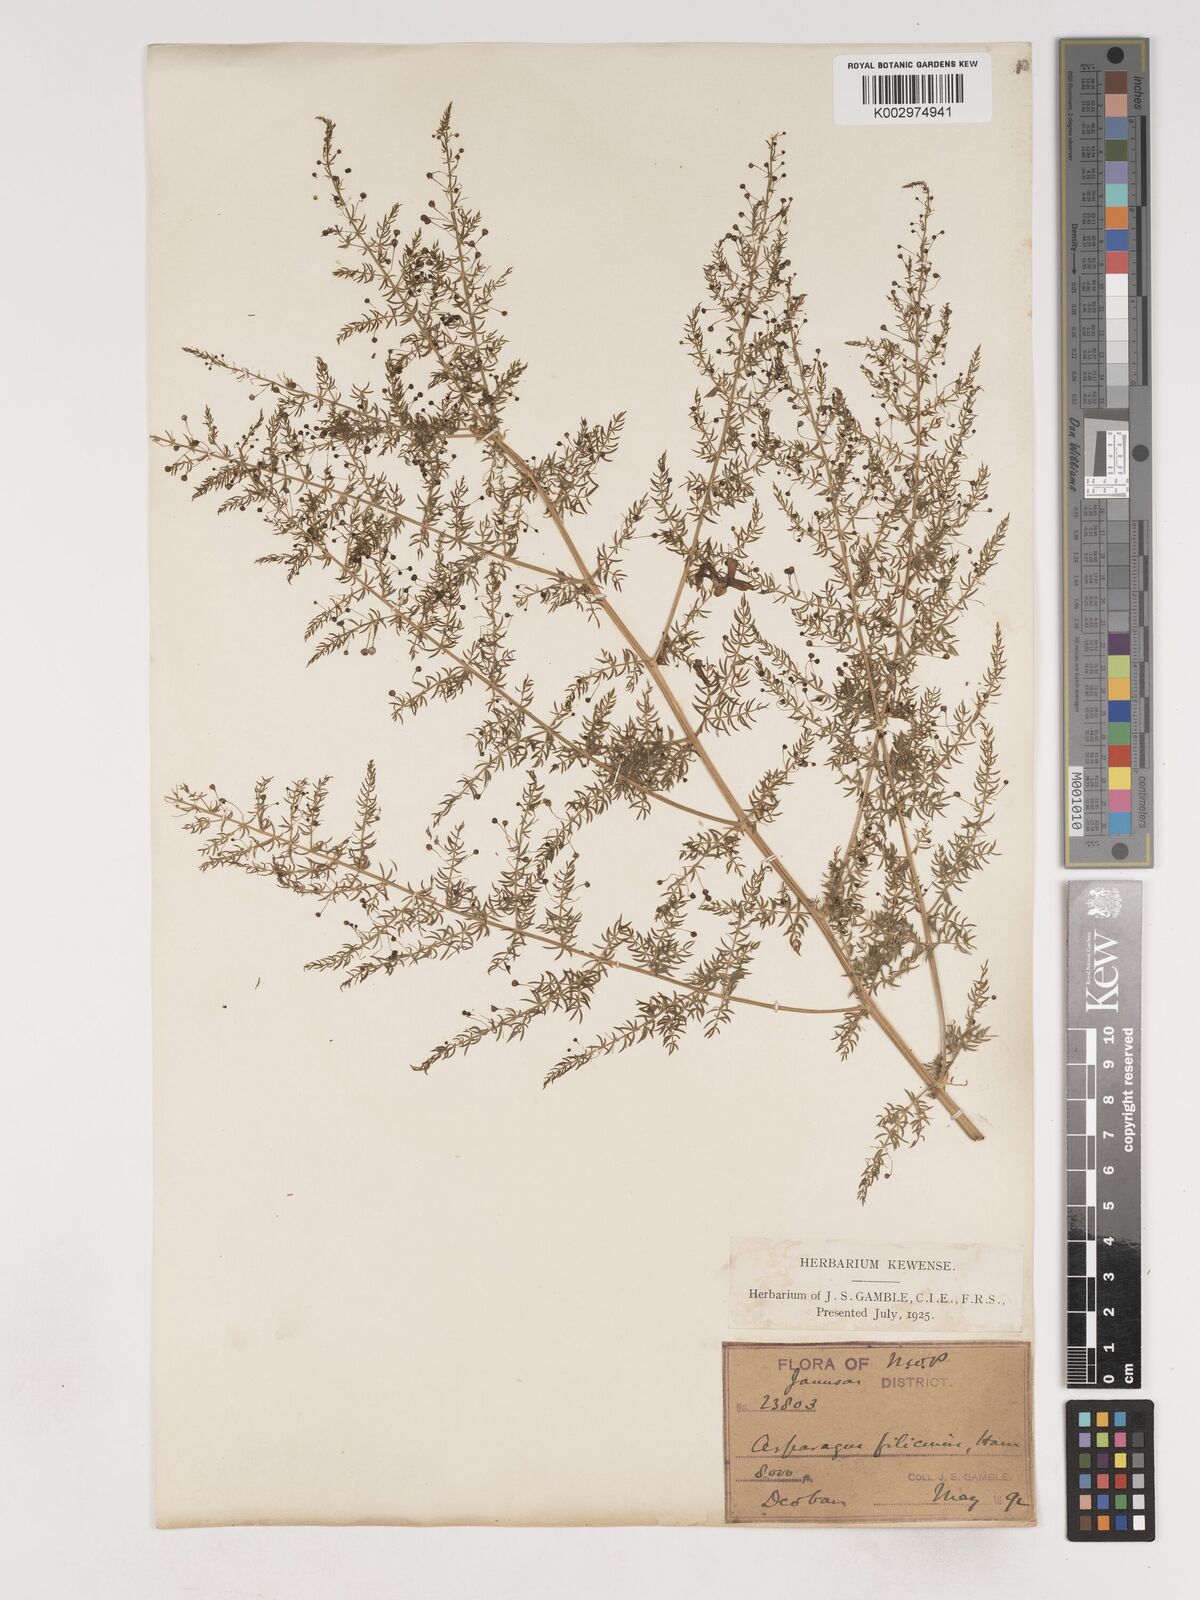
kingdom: Plantae
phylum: Tracheophyta
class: Liliopsida
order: Asparagales
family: Asparagaceae
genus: Asparagus
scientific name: Asparagus filicinus
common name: Fern asparagus
